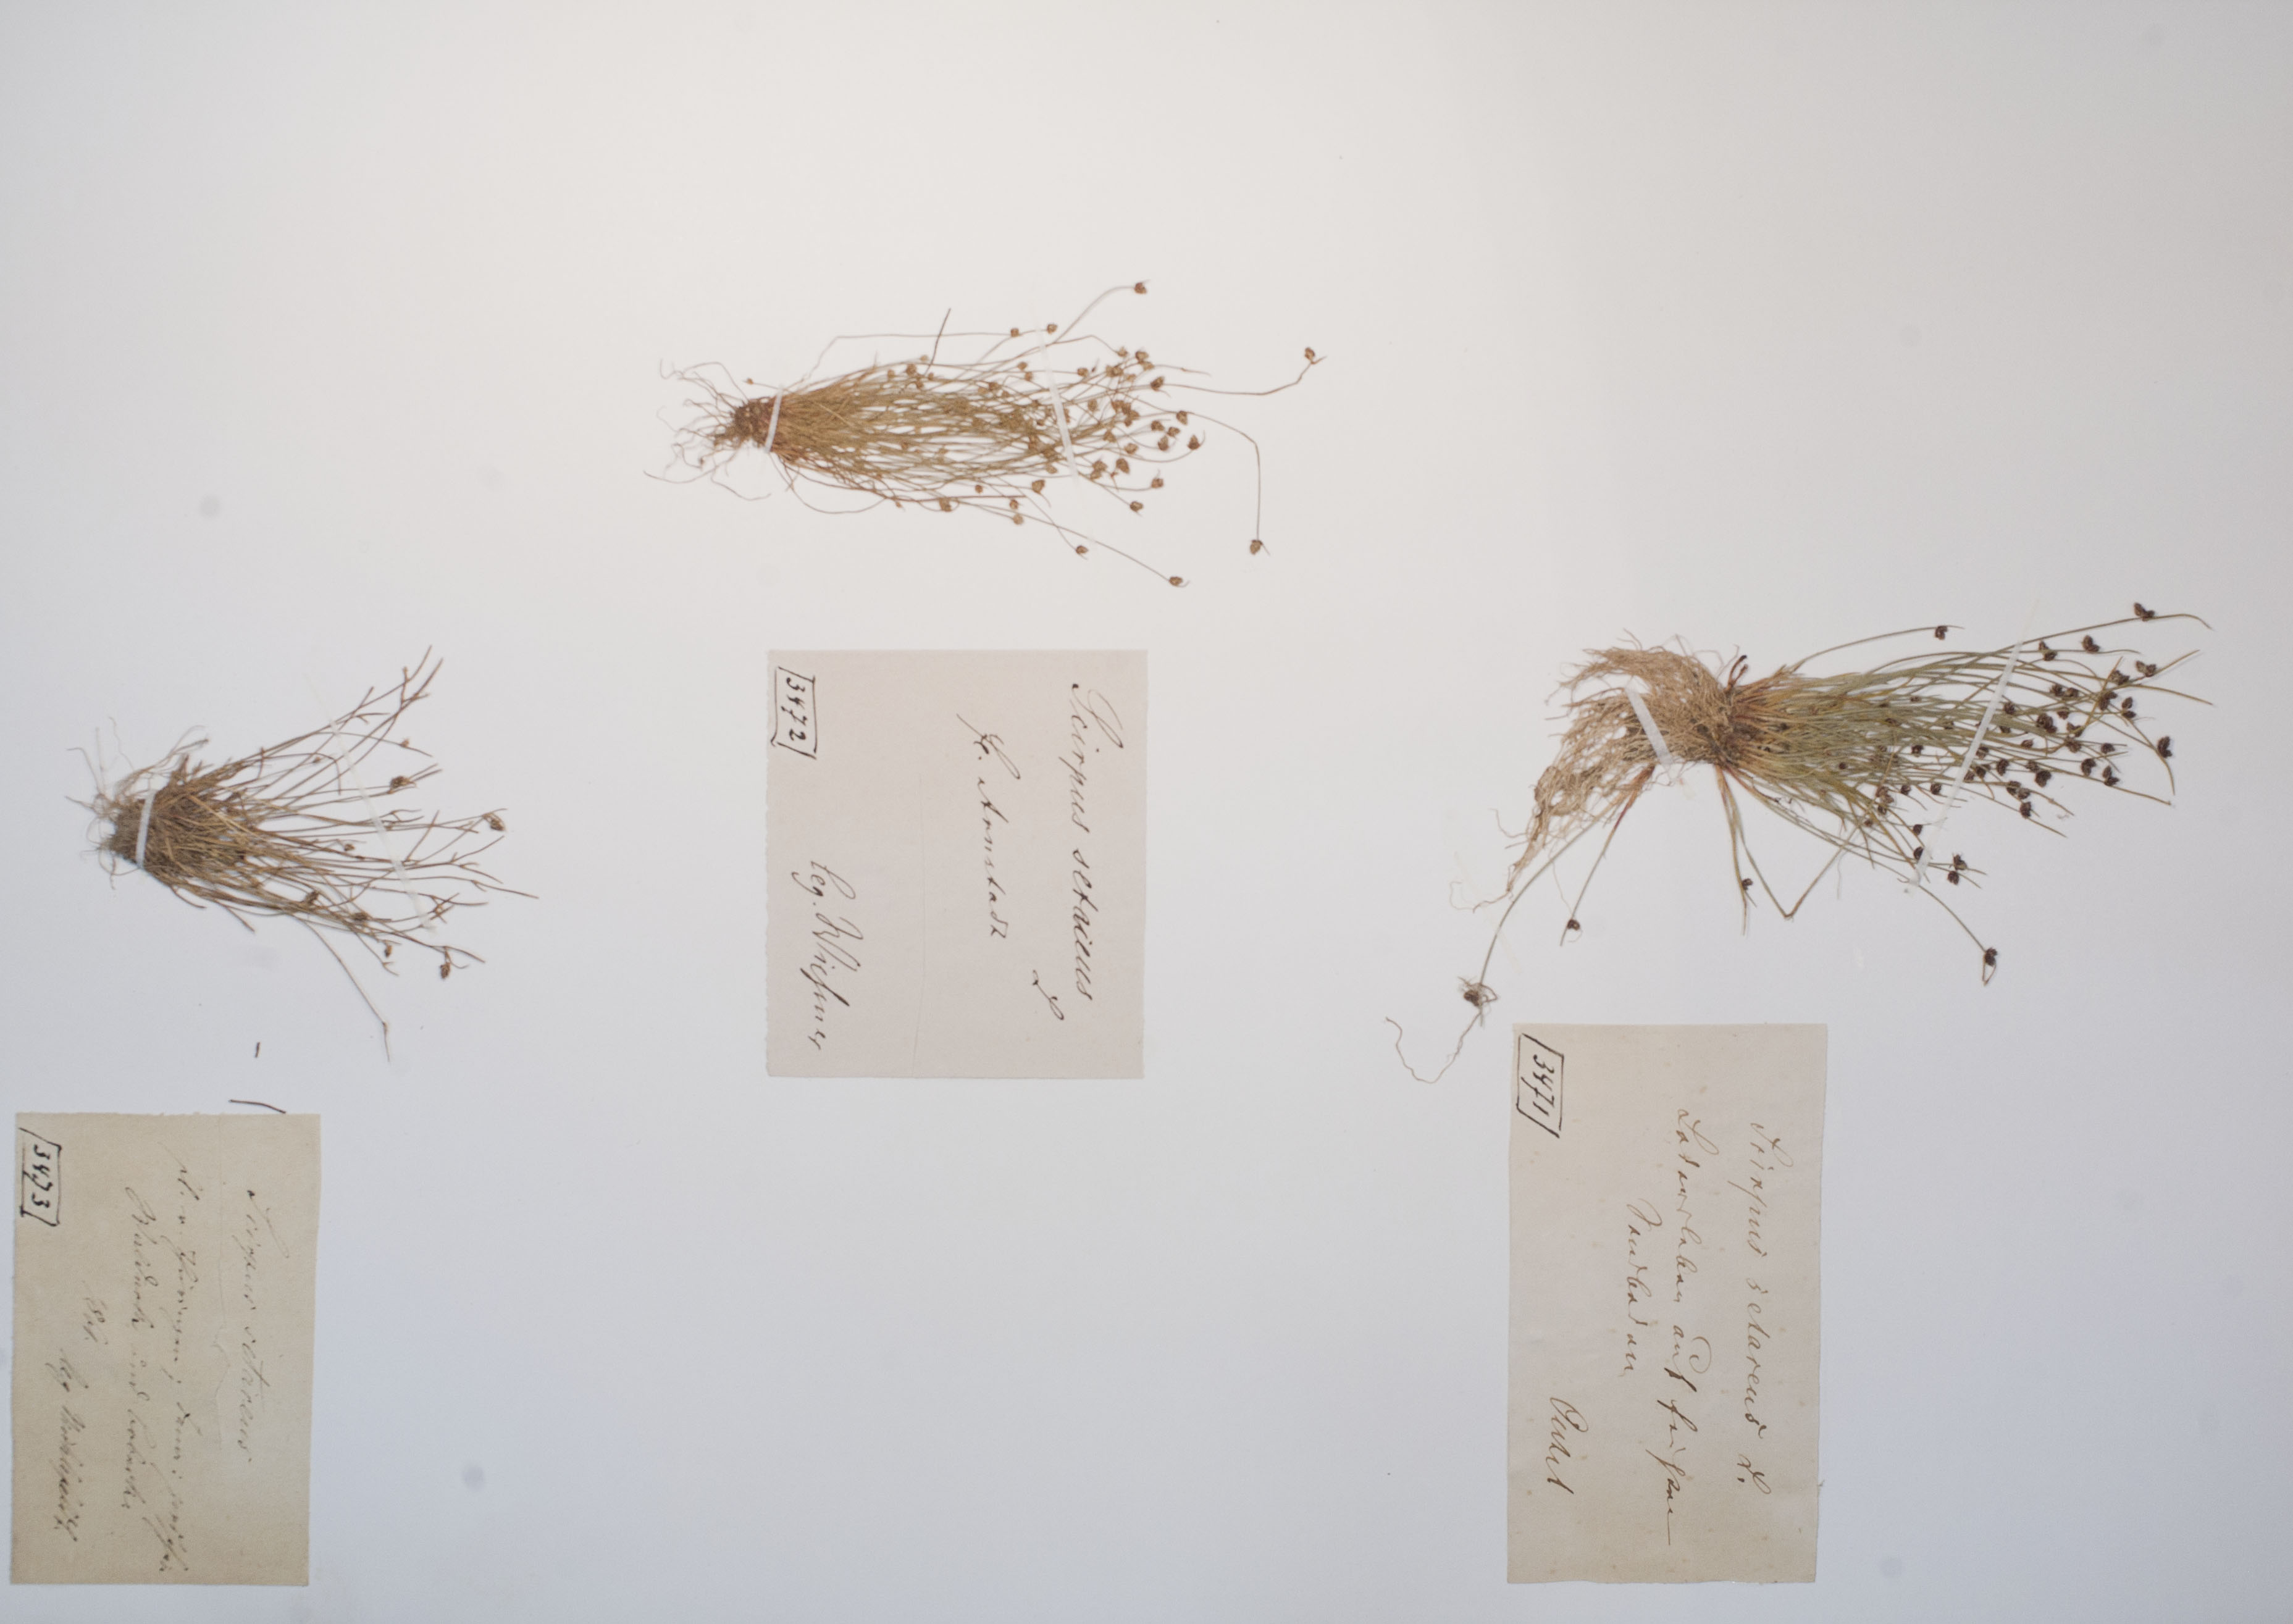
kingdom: Plantae
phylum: Tracheophyta
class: Liliopsida
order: Poales
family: Cyperaceae
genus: Isolepis
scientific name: Isolepis setacea
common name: Bristle club-rush
